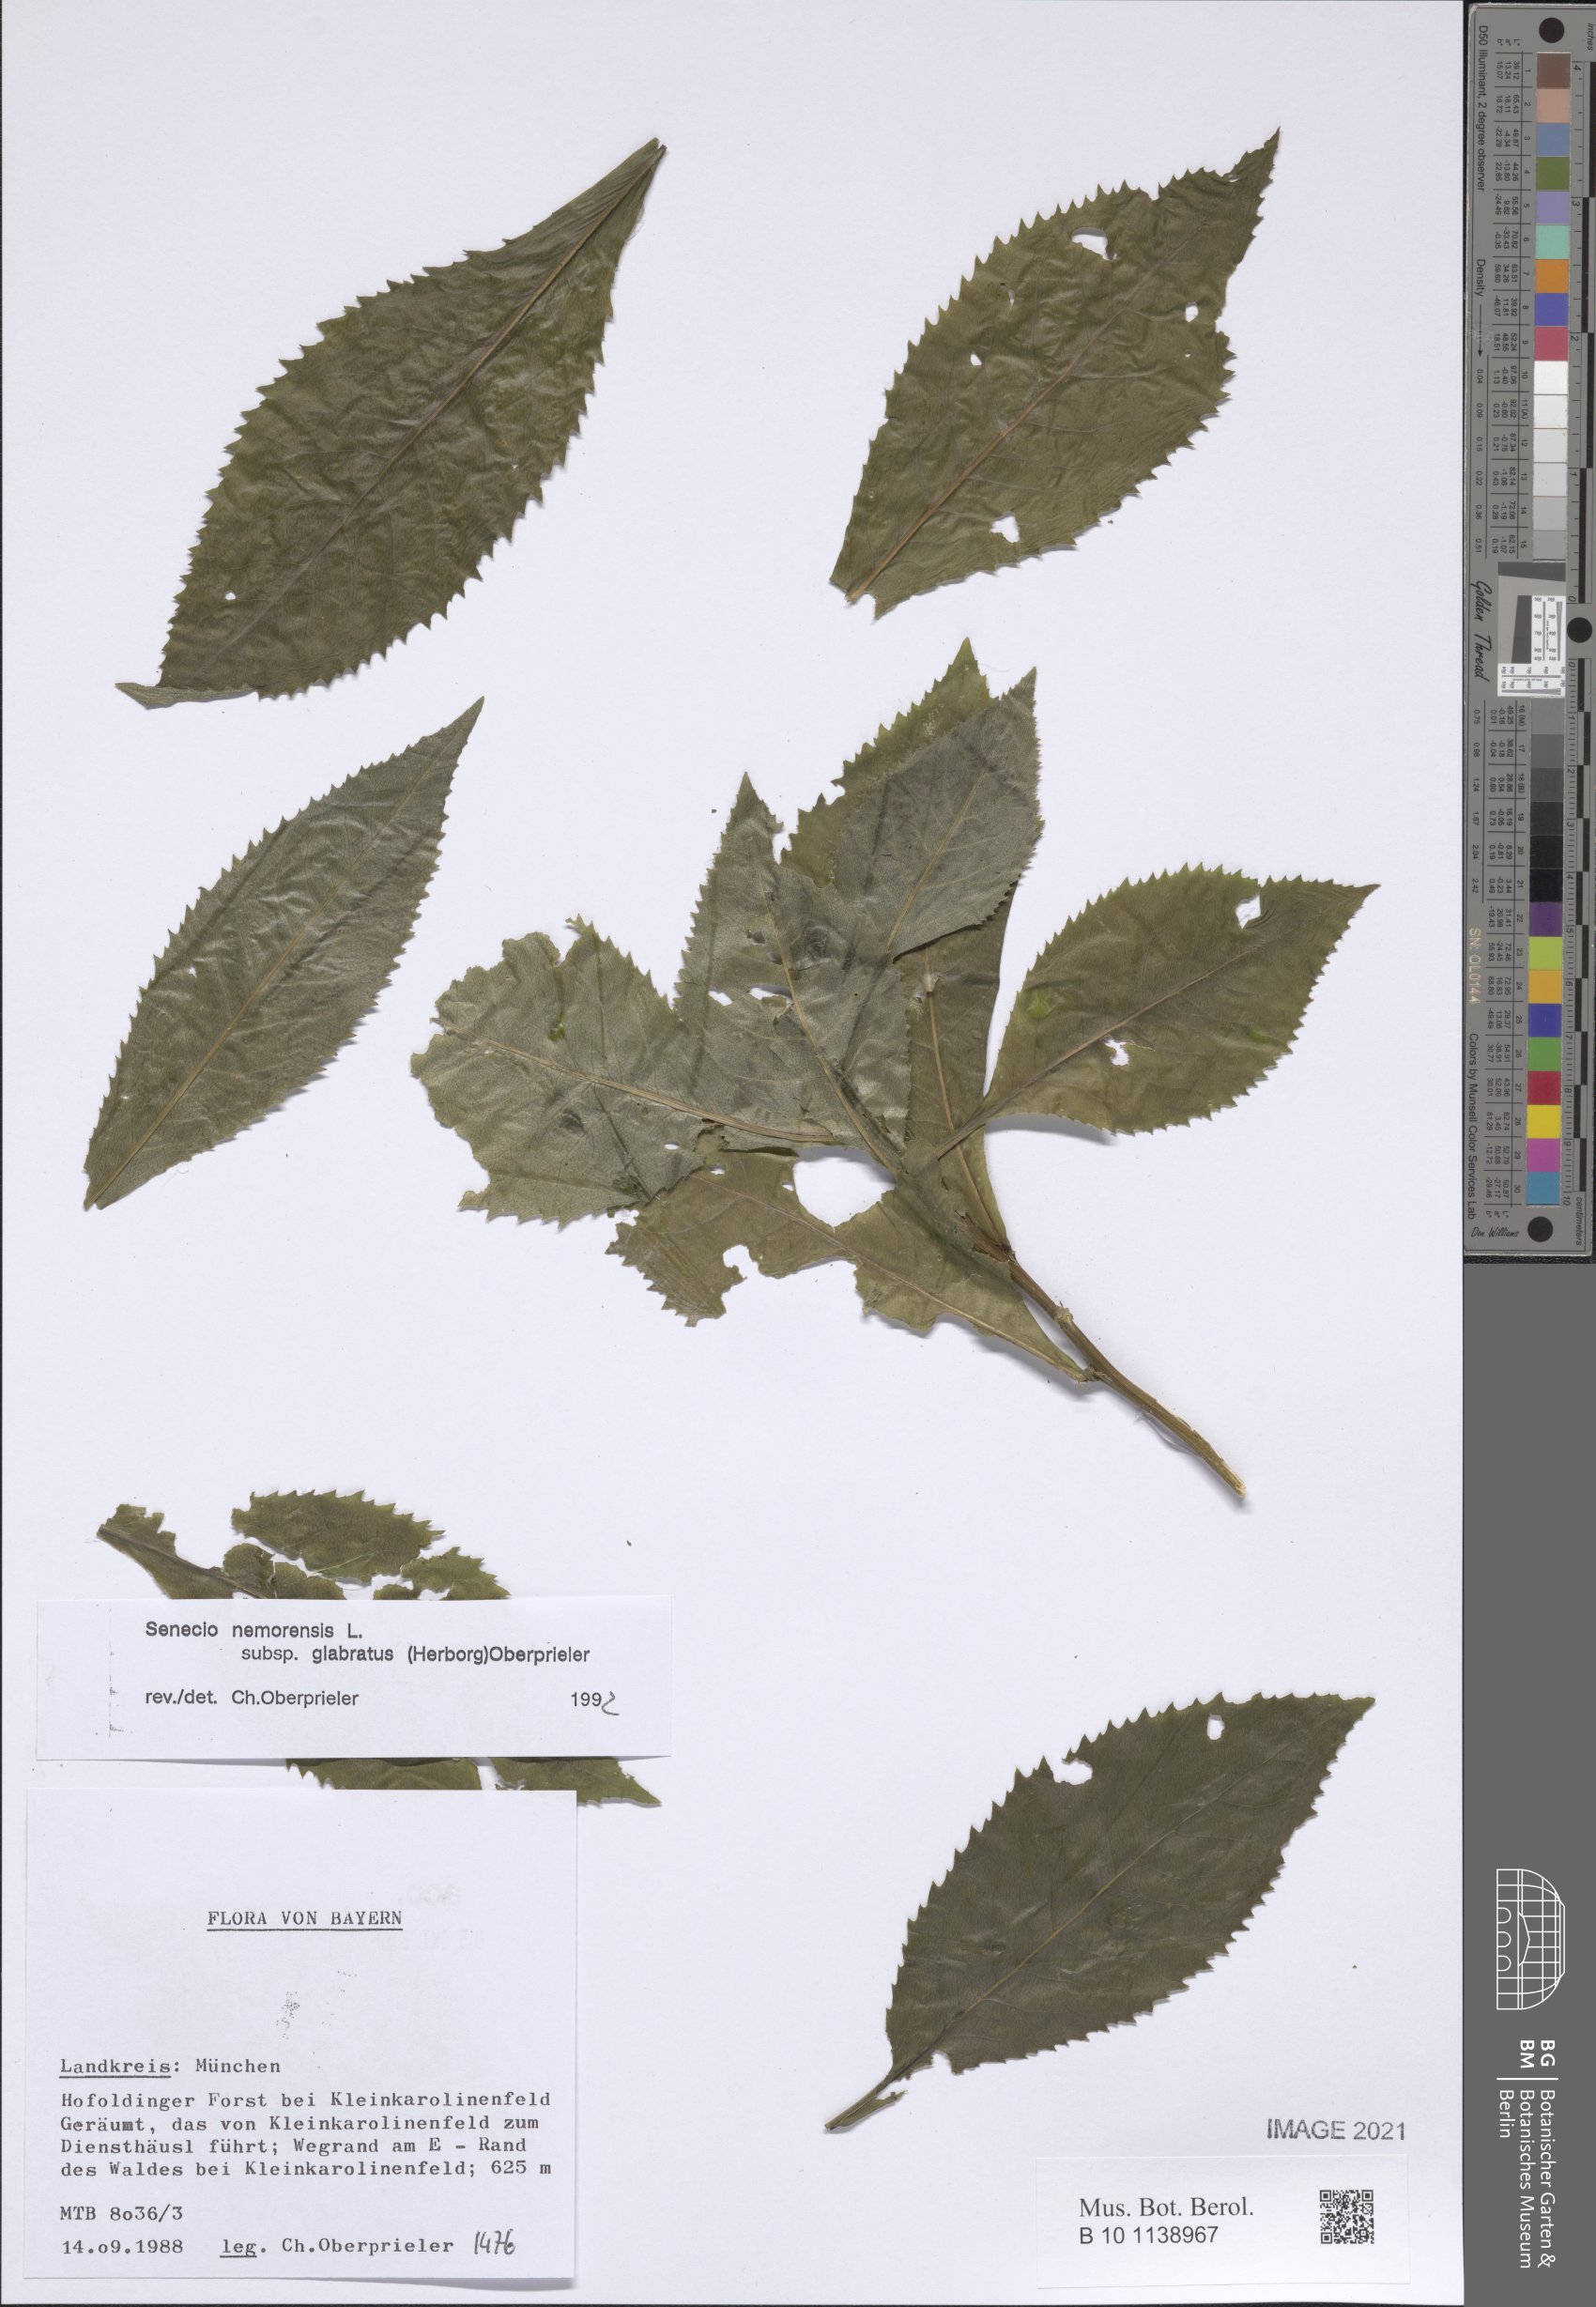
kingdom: Plantae
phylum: Tracheophyta
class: Magnoliopsida
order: Asterales
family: Asteraceae
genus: Senecio
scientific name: Senecio germanicus
